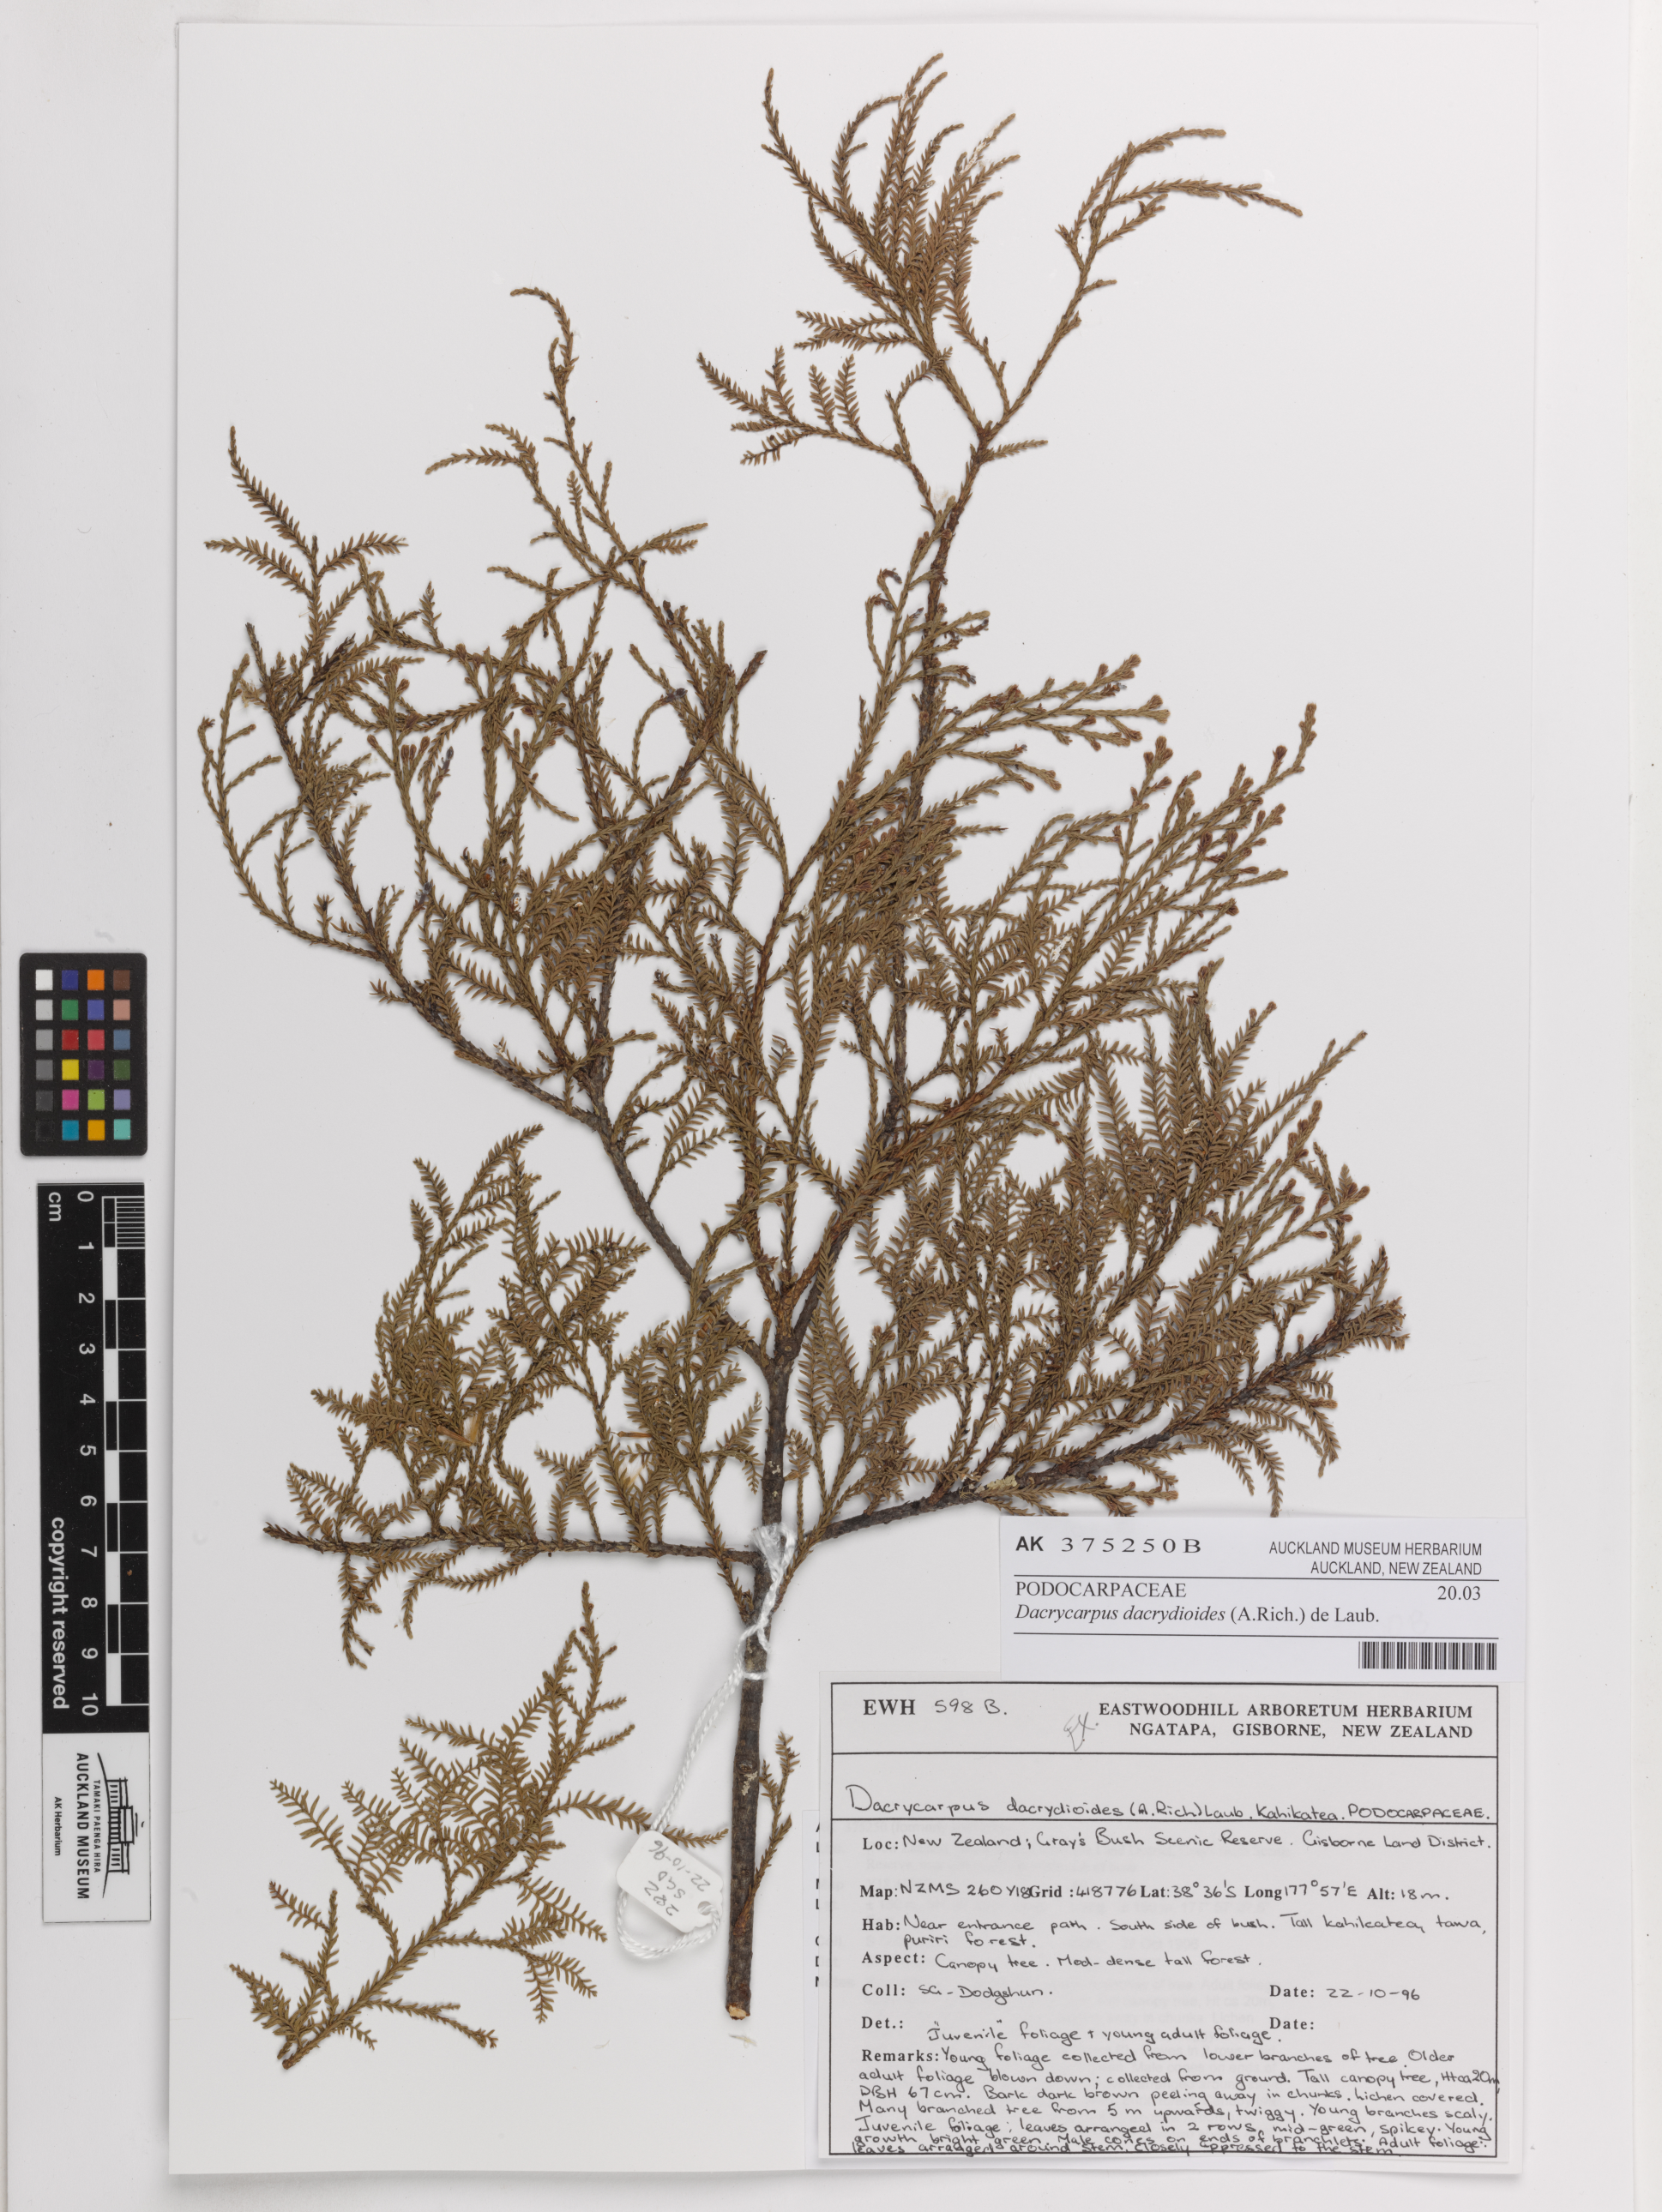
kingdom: Plantae
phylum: Tracheophyta
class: Pinopsida
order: Pinales
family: Podocarpaceae
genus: Dacrycarpus
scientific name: Dacrycarpus dacrydioides
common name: White pine
